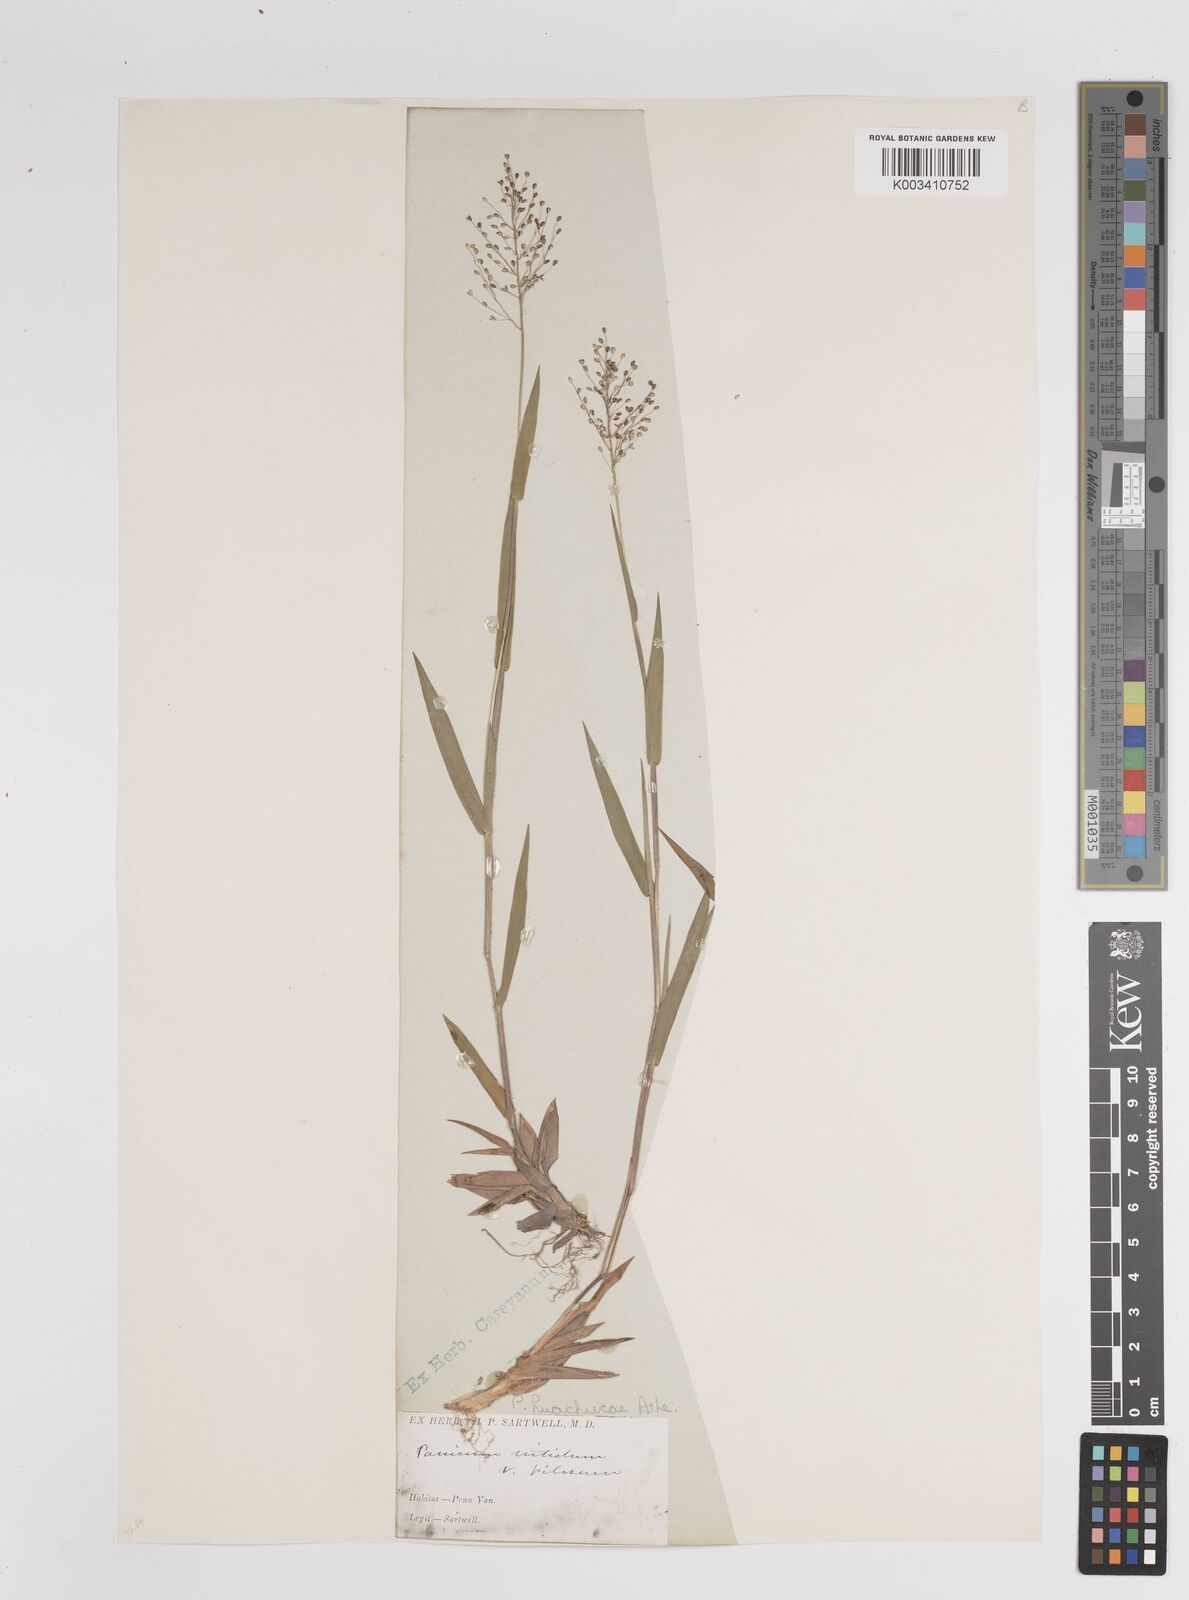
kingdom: Plantae
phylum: Tracheophyta
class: Liliopsida
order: Poales
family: Poaceae
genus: Dichanthelium
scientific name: Dichanthelium acuminatum
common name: Hairy panic grass
